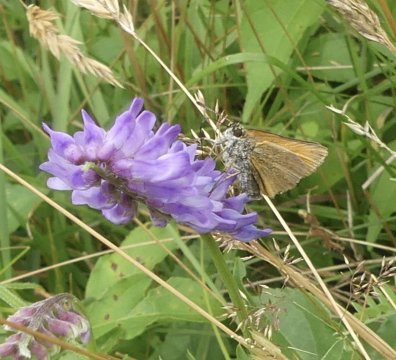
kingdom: Animalia
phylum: Arthropoda
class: Insecta
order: Lepidoptera
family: Hesperiidae
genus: Polites
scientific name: Polites themistocles
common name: Tawny-edged Skipper
